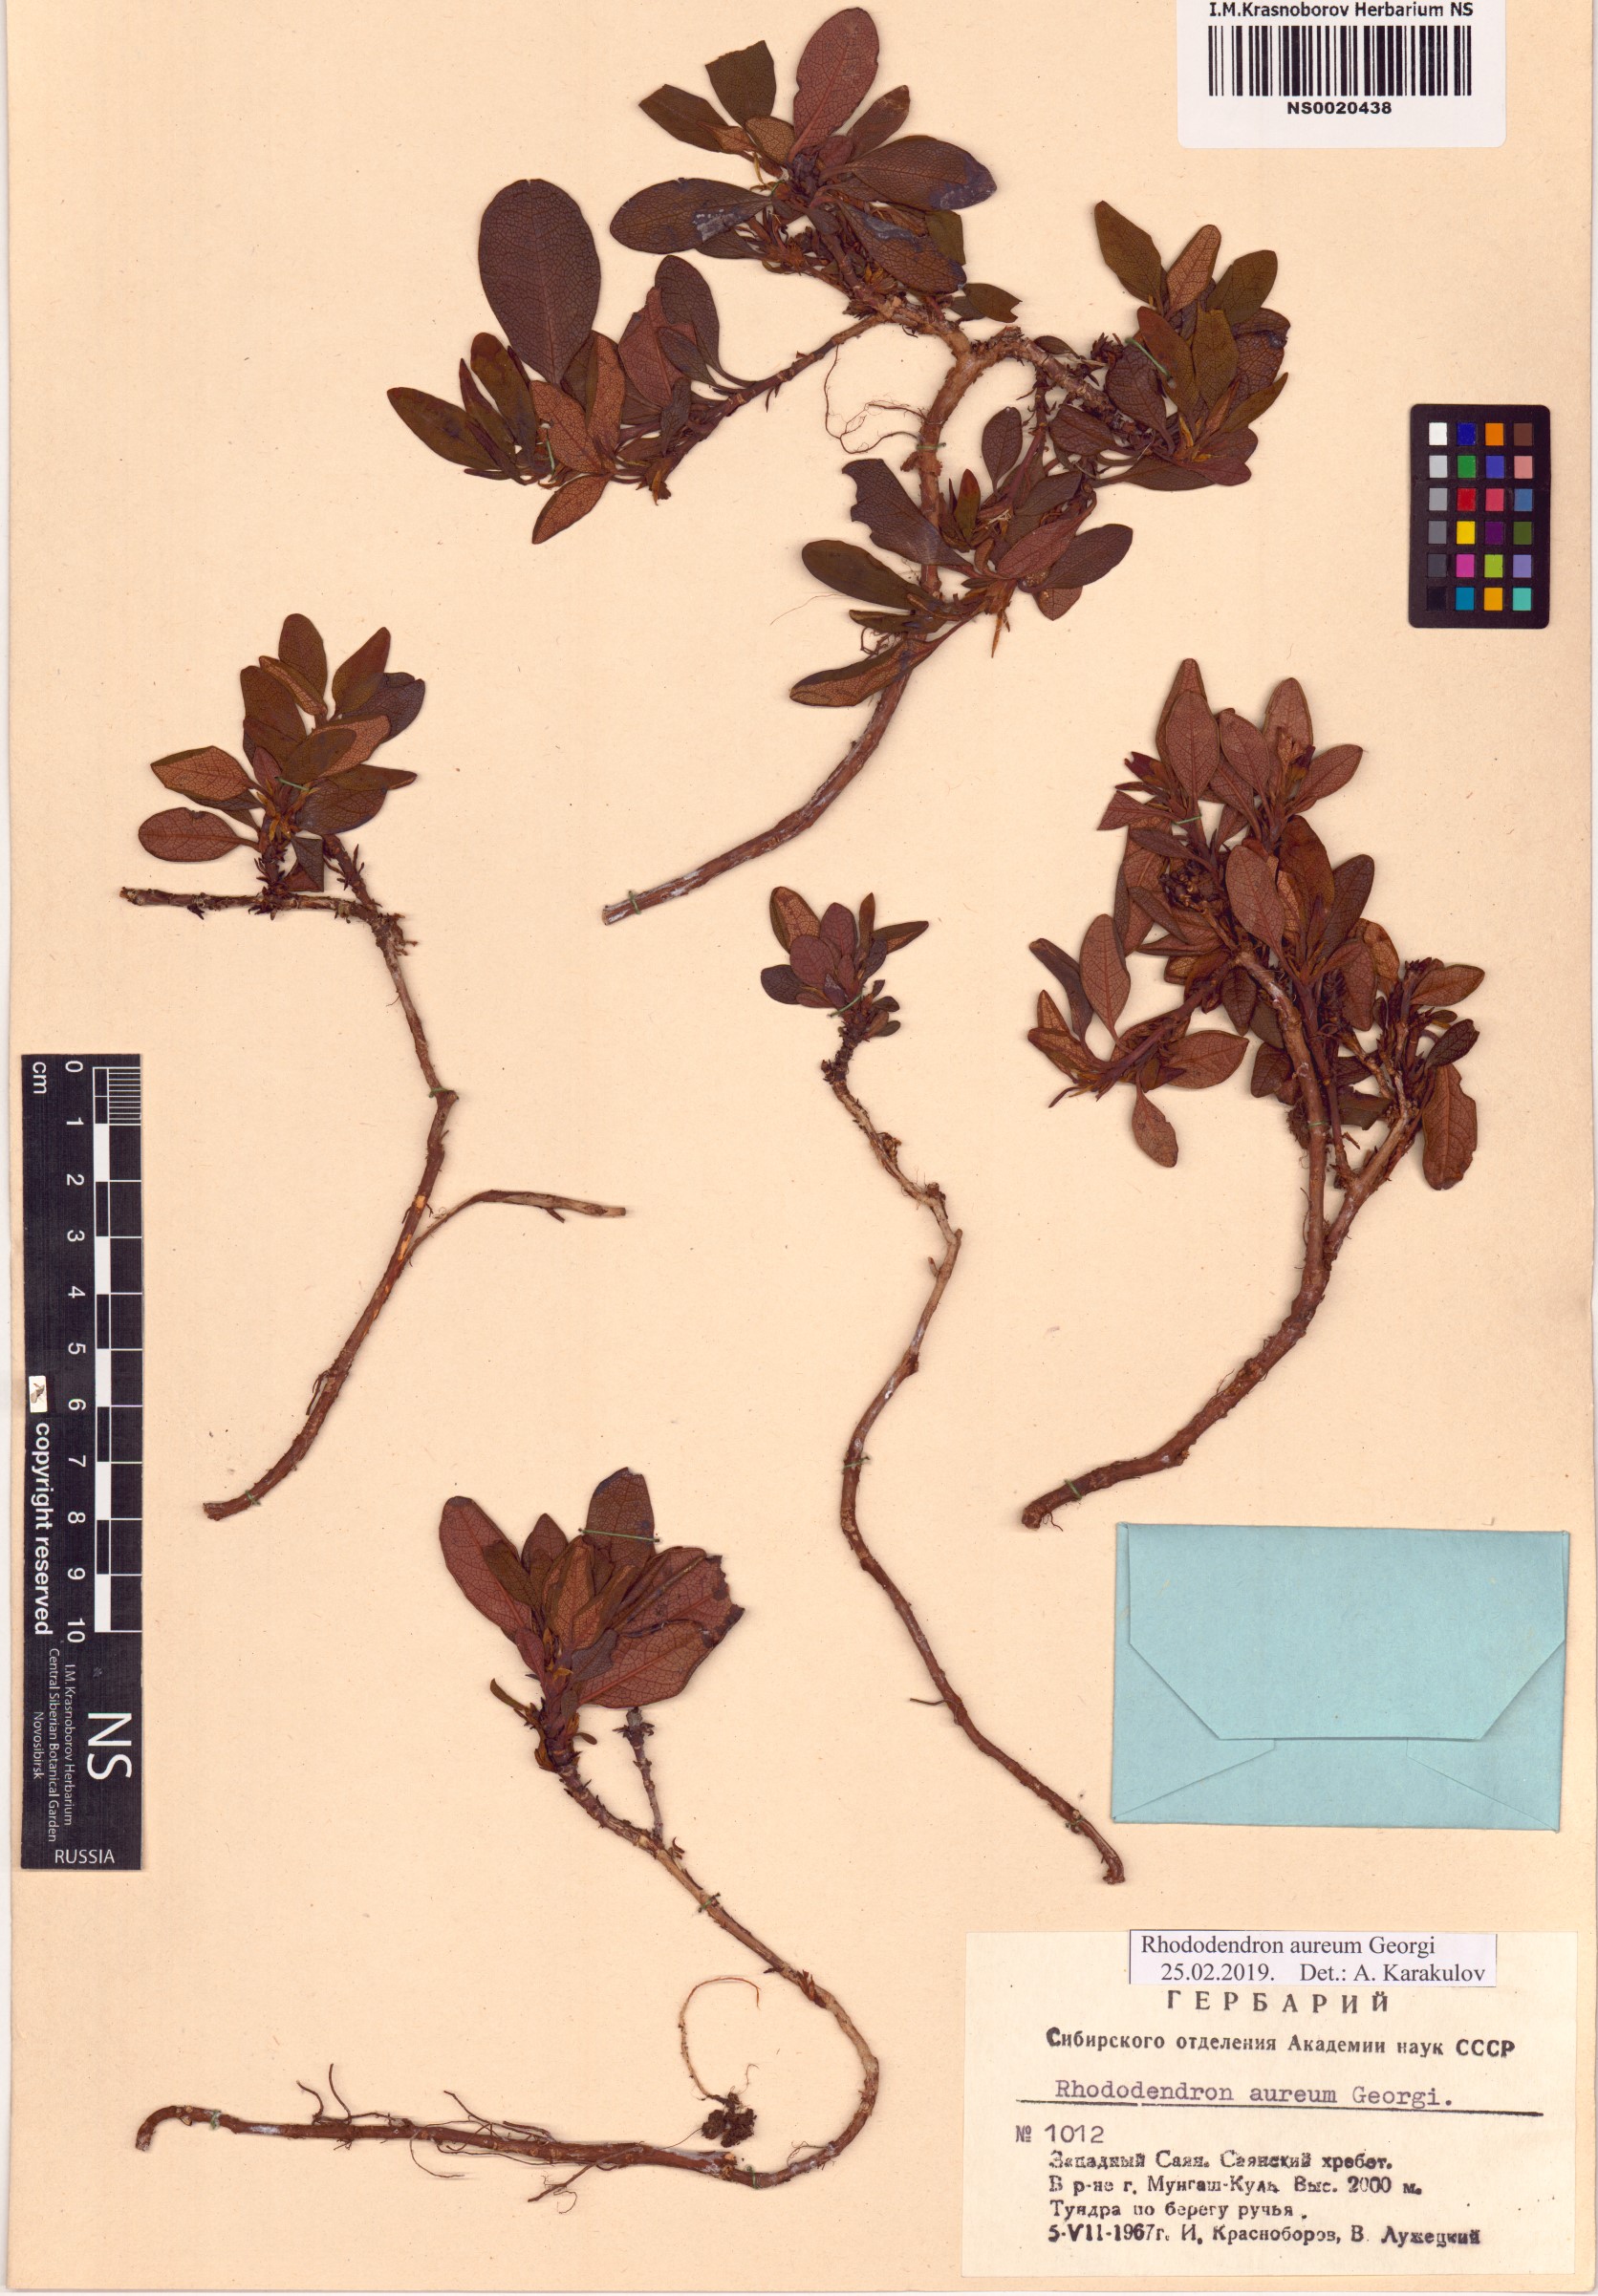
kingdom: Plantae
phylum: Tracheophyta
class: Magnoliopsida
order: Ericales
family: Ericaceae
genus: Rhododendron
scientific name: Rhododendron aureum
